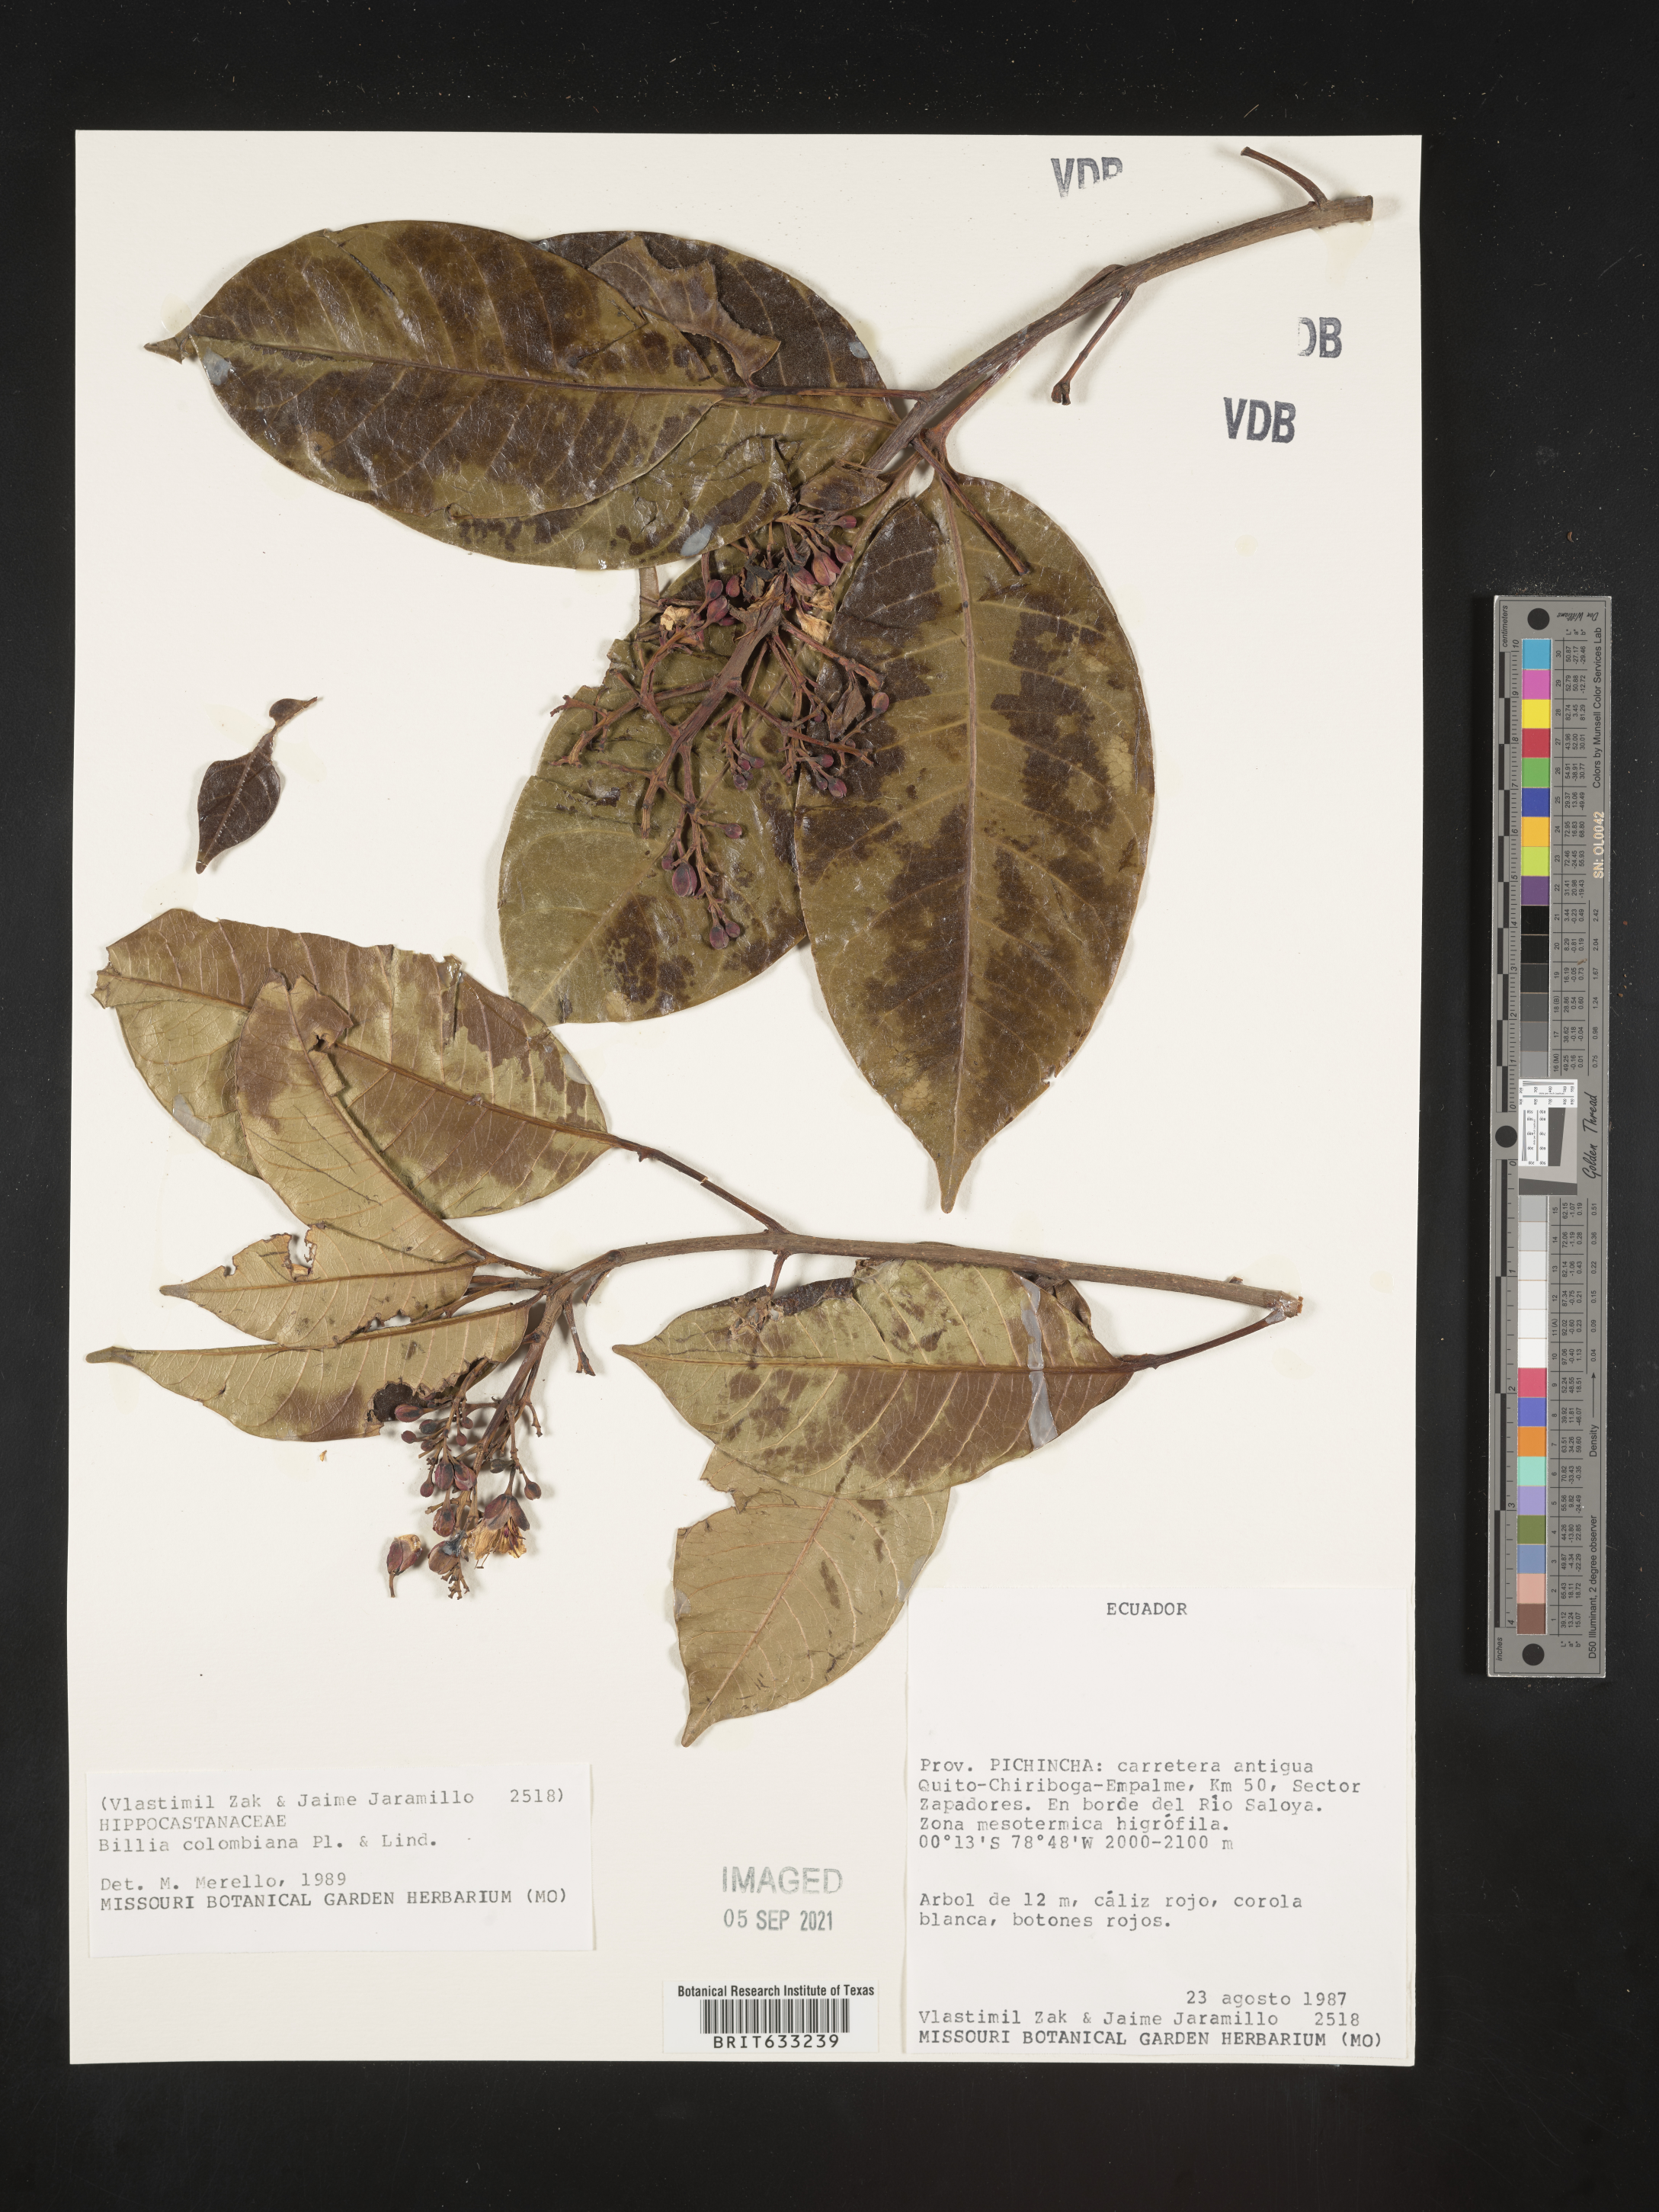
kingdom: Plantae
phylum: Tracheophyta
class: Magnoliopsida
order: Sapindales
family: Sapindaceae
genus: Billia
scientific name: Billia
